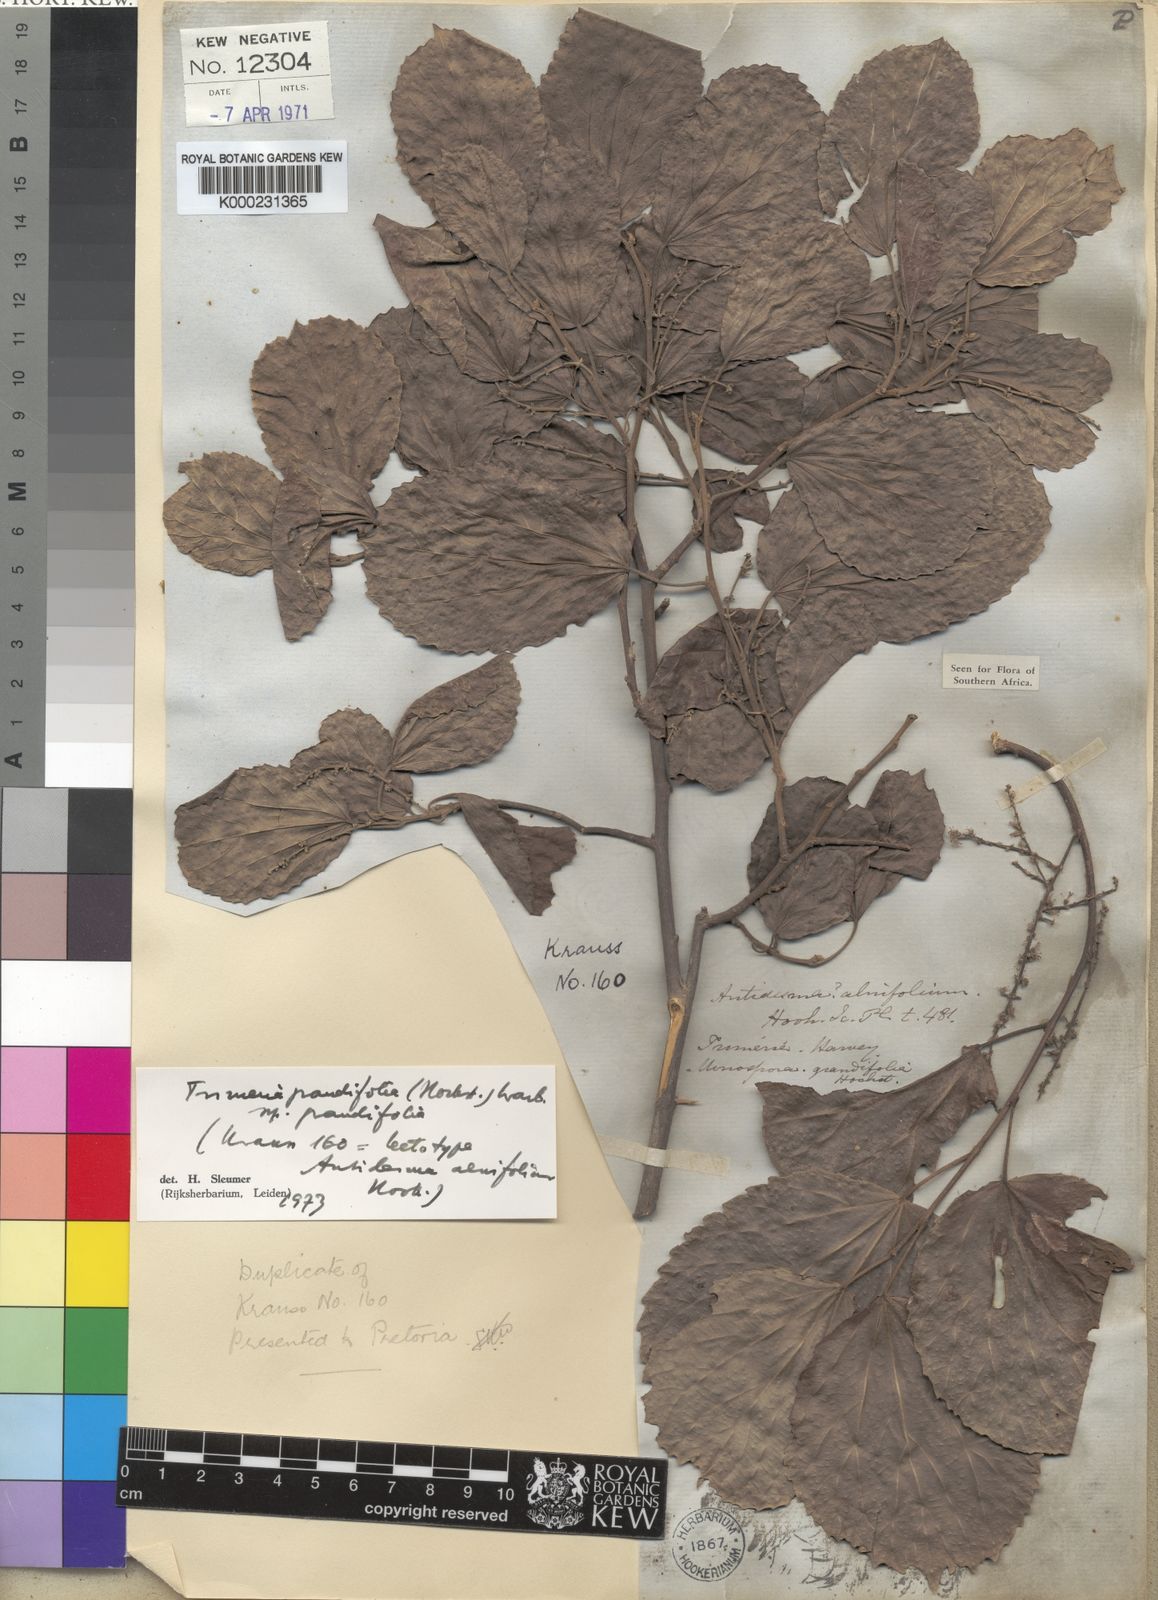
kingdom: Plantae
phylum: Tracheophyta
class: Magnoliopsida
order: Malpighiales
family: Salicaceae
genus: Trimeria
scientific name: Trimeria grandifolia
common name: Wild mulberry
